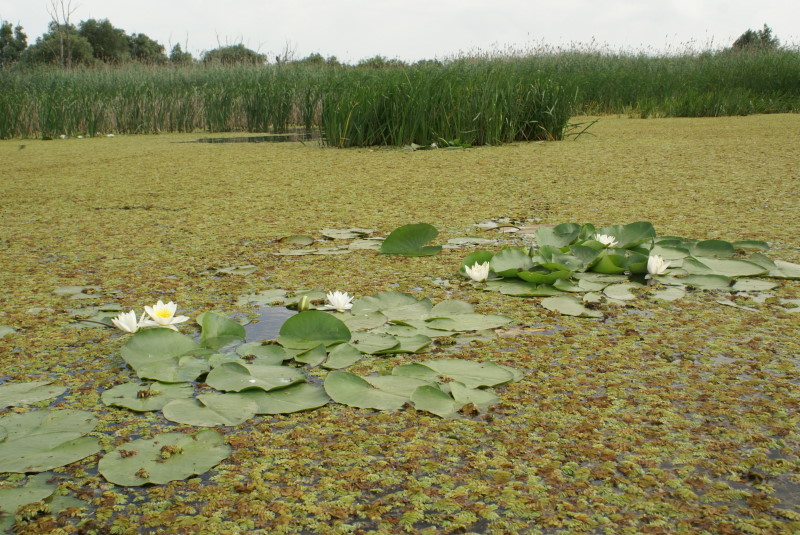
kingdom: Plantae
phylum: Tracheophyta
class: Polypodiopsida
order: Salviniales
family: Salviniaceae
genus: Salvinia
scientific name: Salvinia natans
